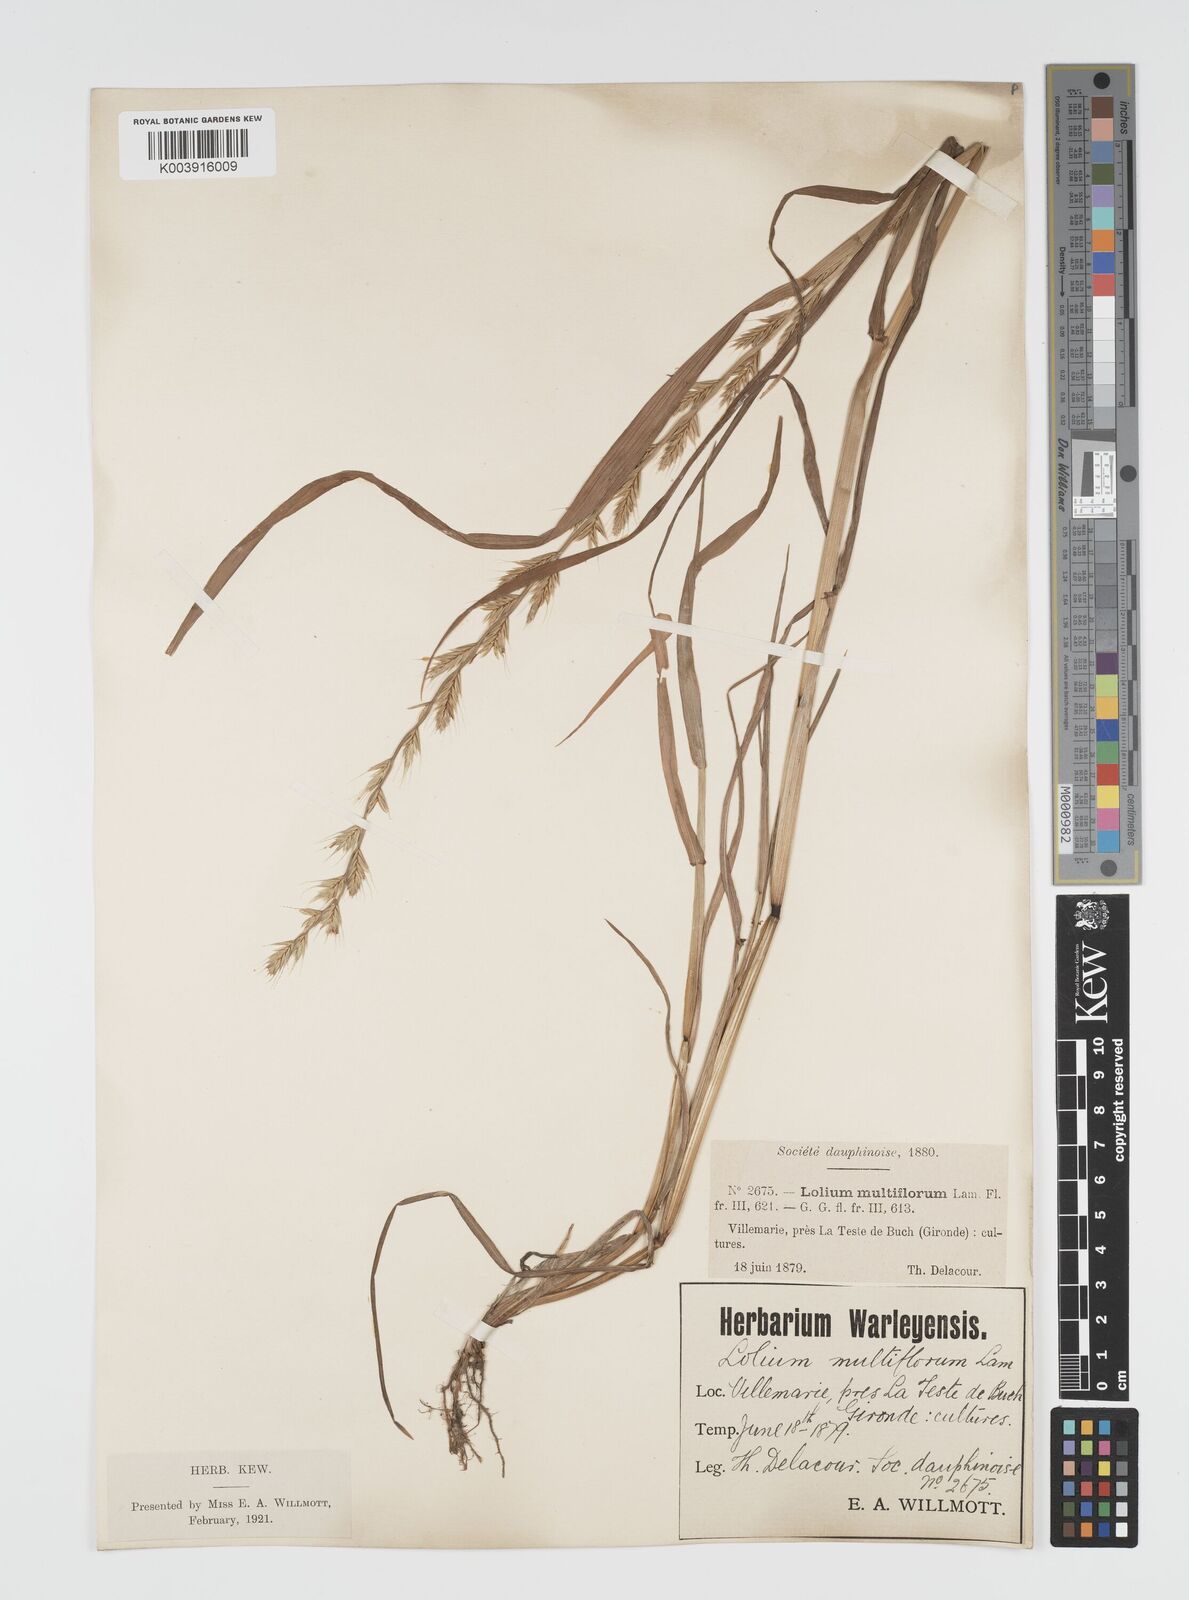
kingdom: Plantae
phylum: Tracheophyta
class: Liliopsida
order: Poales
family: Poaceae
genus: Lolium
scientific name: Lolium multiflorum
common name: Annual ryegrass
